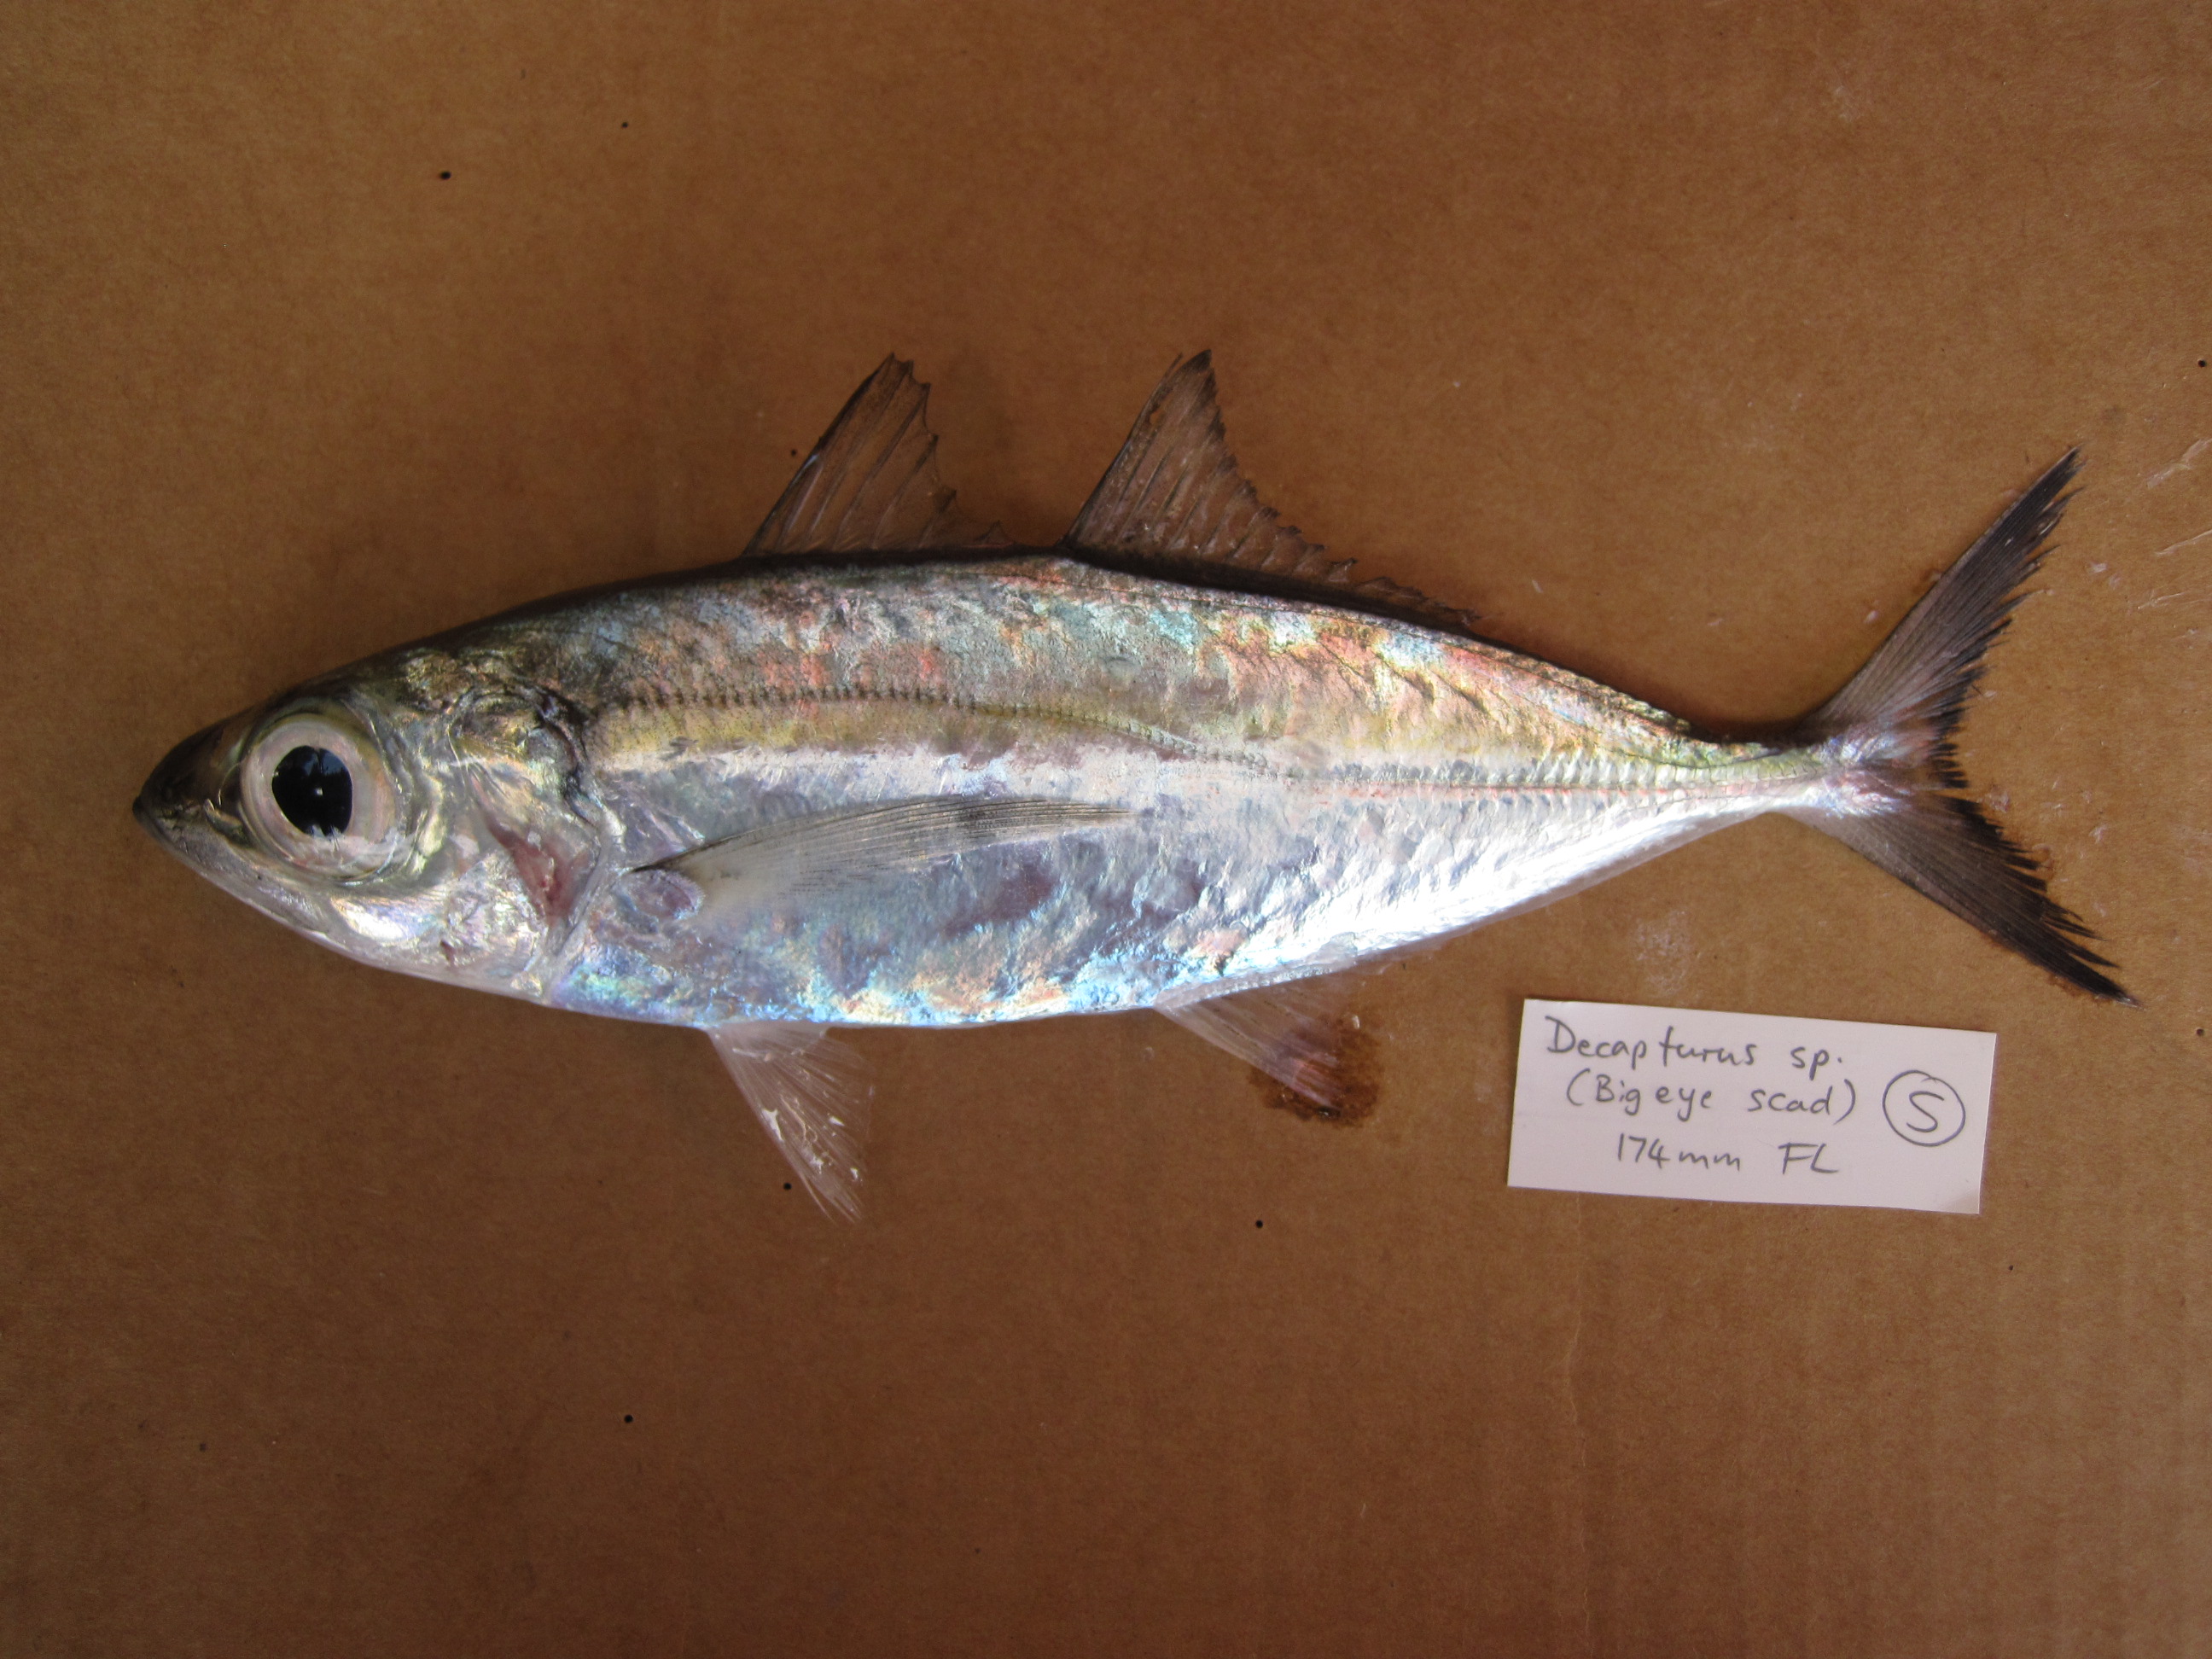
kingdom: Animalia
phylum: Chordata
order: Perciformes
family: Carangidae
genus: Decapterus
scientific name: Decapterus russelli
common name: Indian scad
